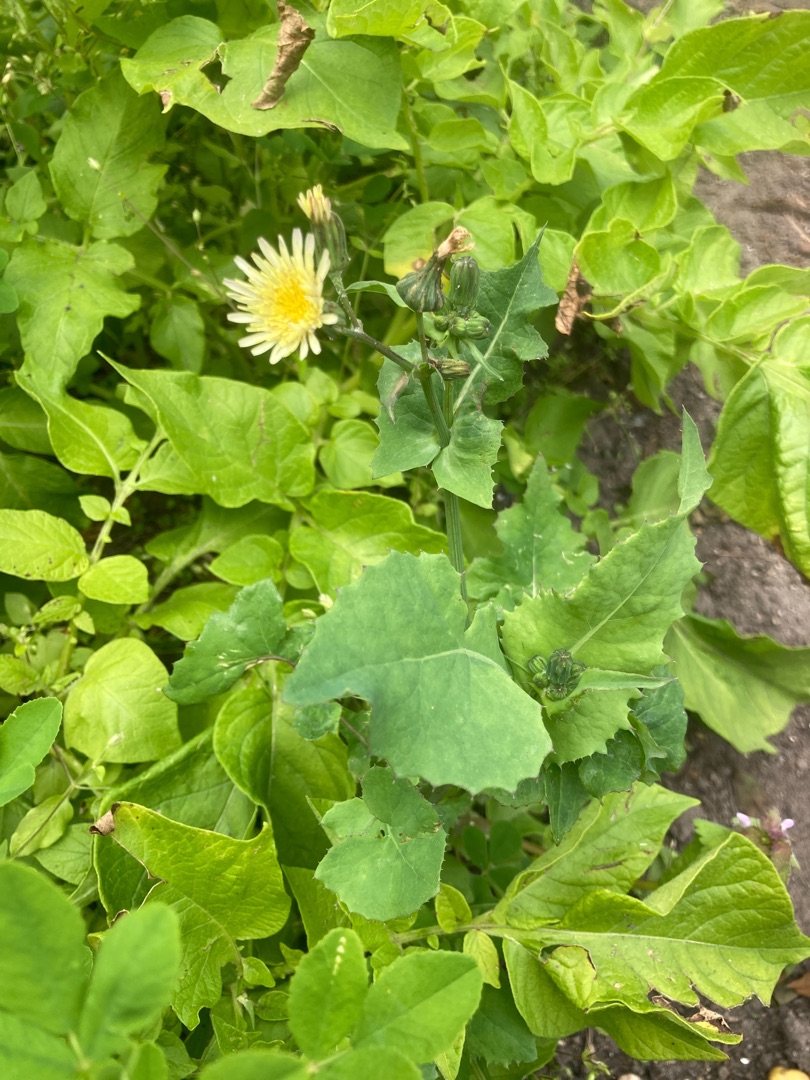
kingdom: Plantae
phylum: Tracheophyta
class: Magnoliopsida
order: Asterales
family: Asteraceae
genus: Sonchus
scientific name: Sonchus oleraceus
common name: Almindelig svinemælk
